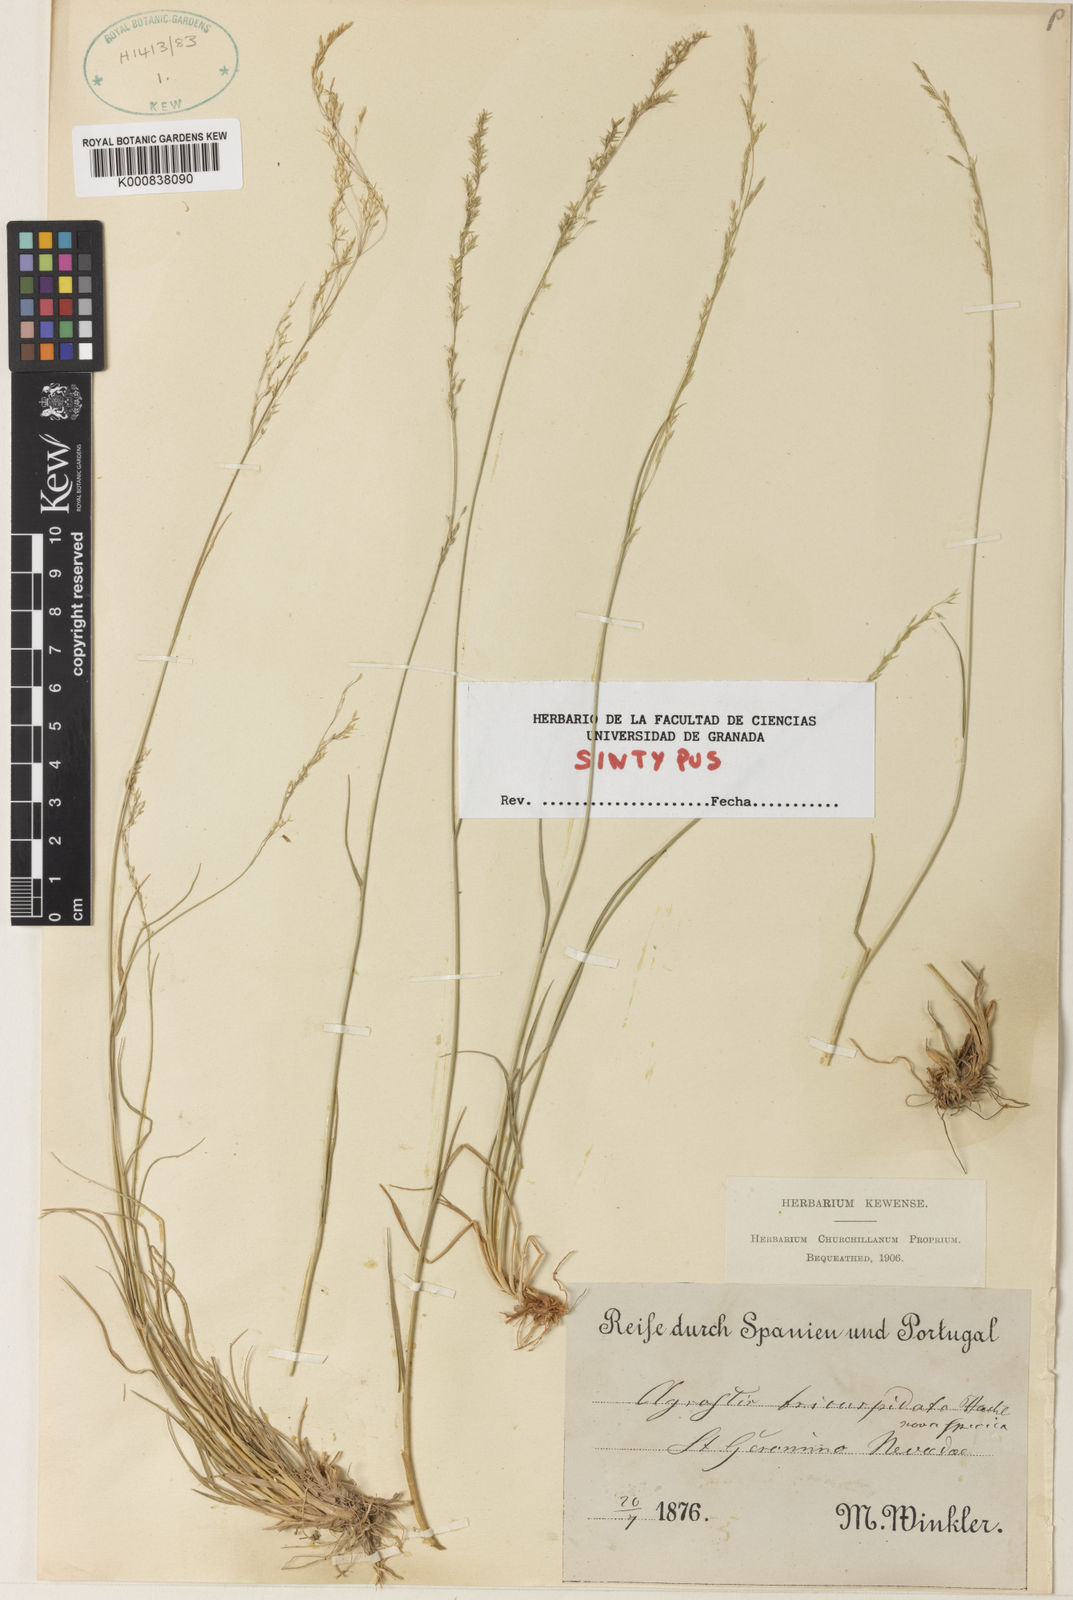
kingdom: Plantae
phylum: Tracheophyta
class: Liliopsida
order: Poales
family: Poaceae
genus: Agrostis
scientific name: Agrostis castellana
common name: Highland bent
